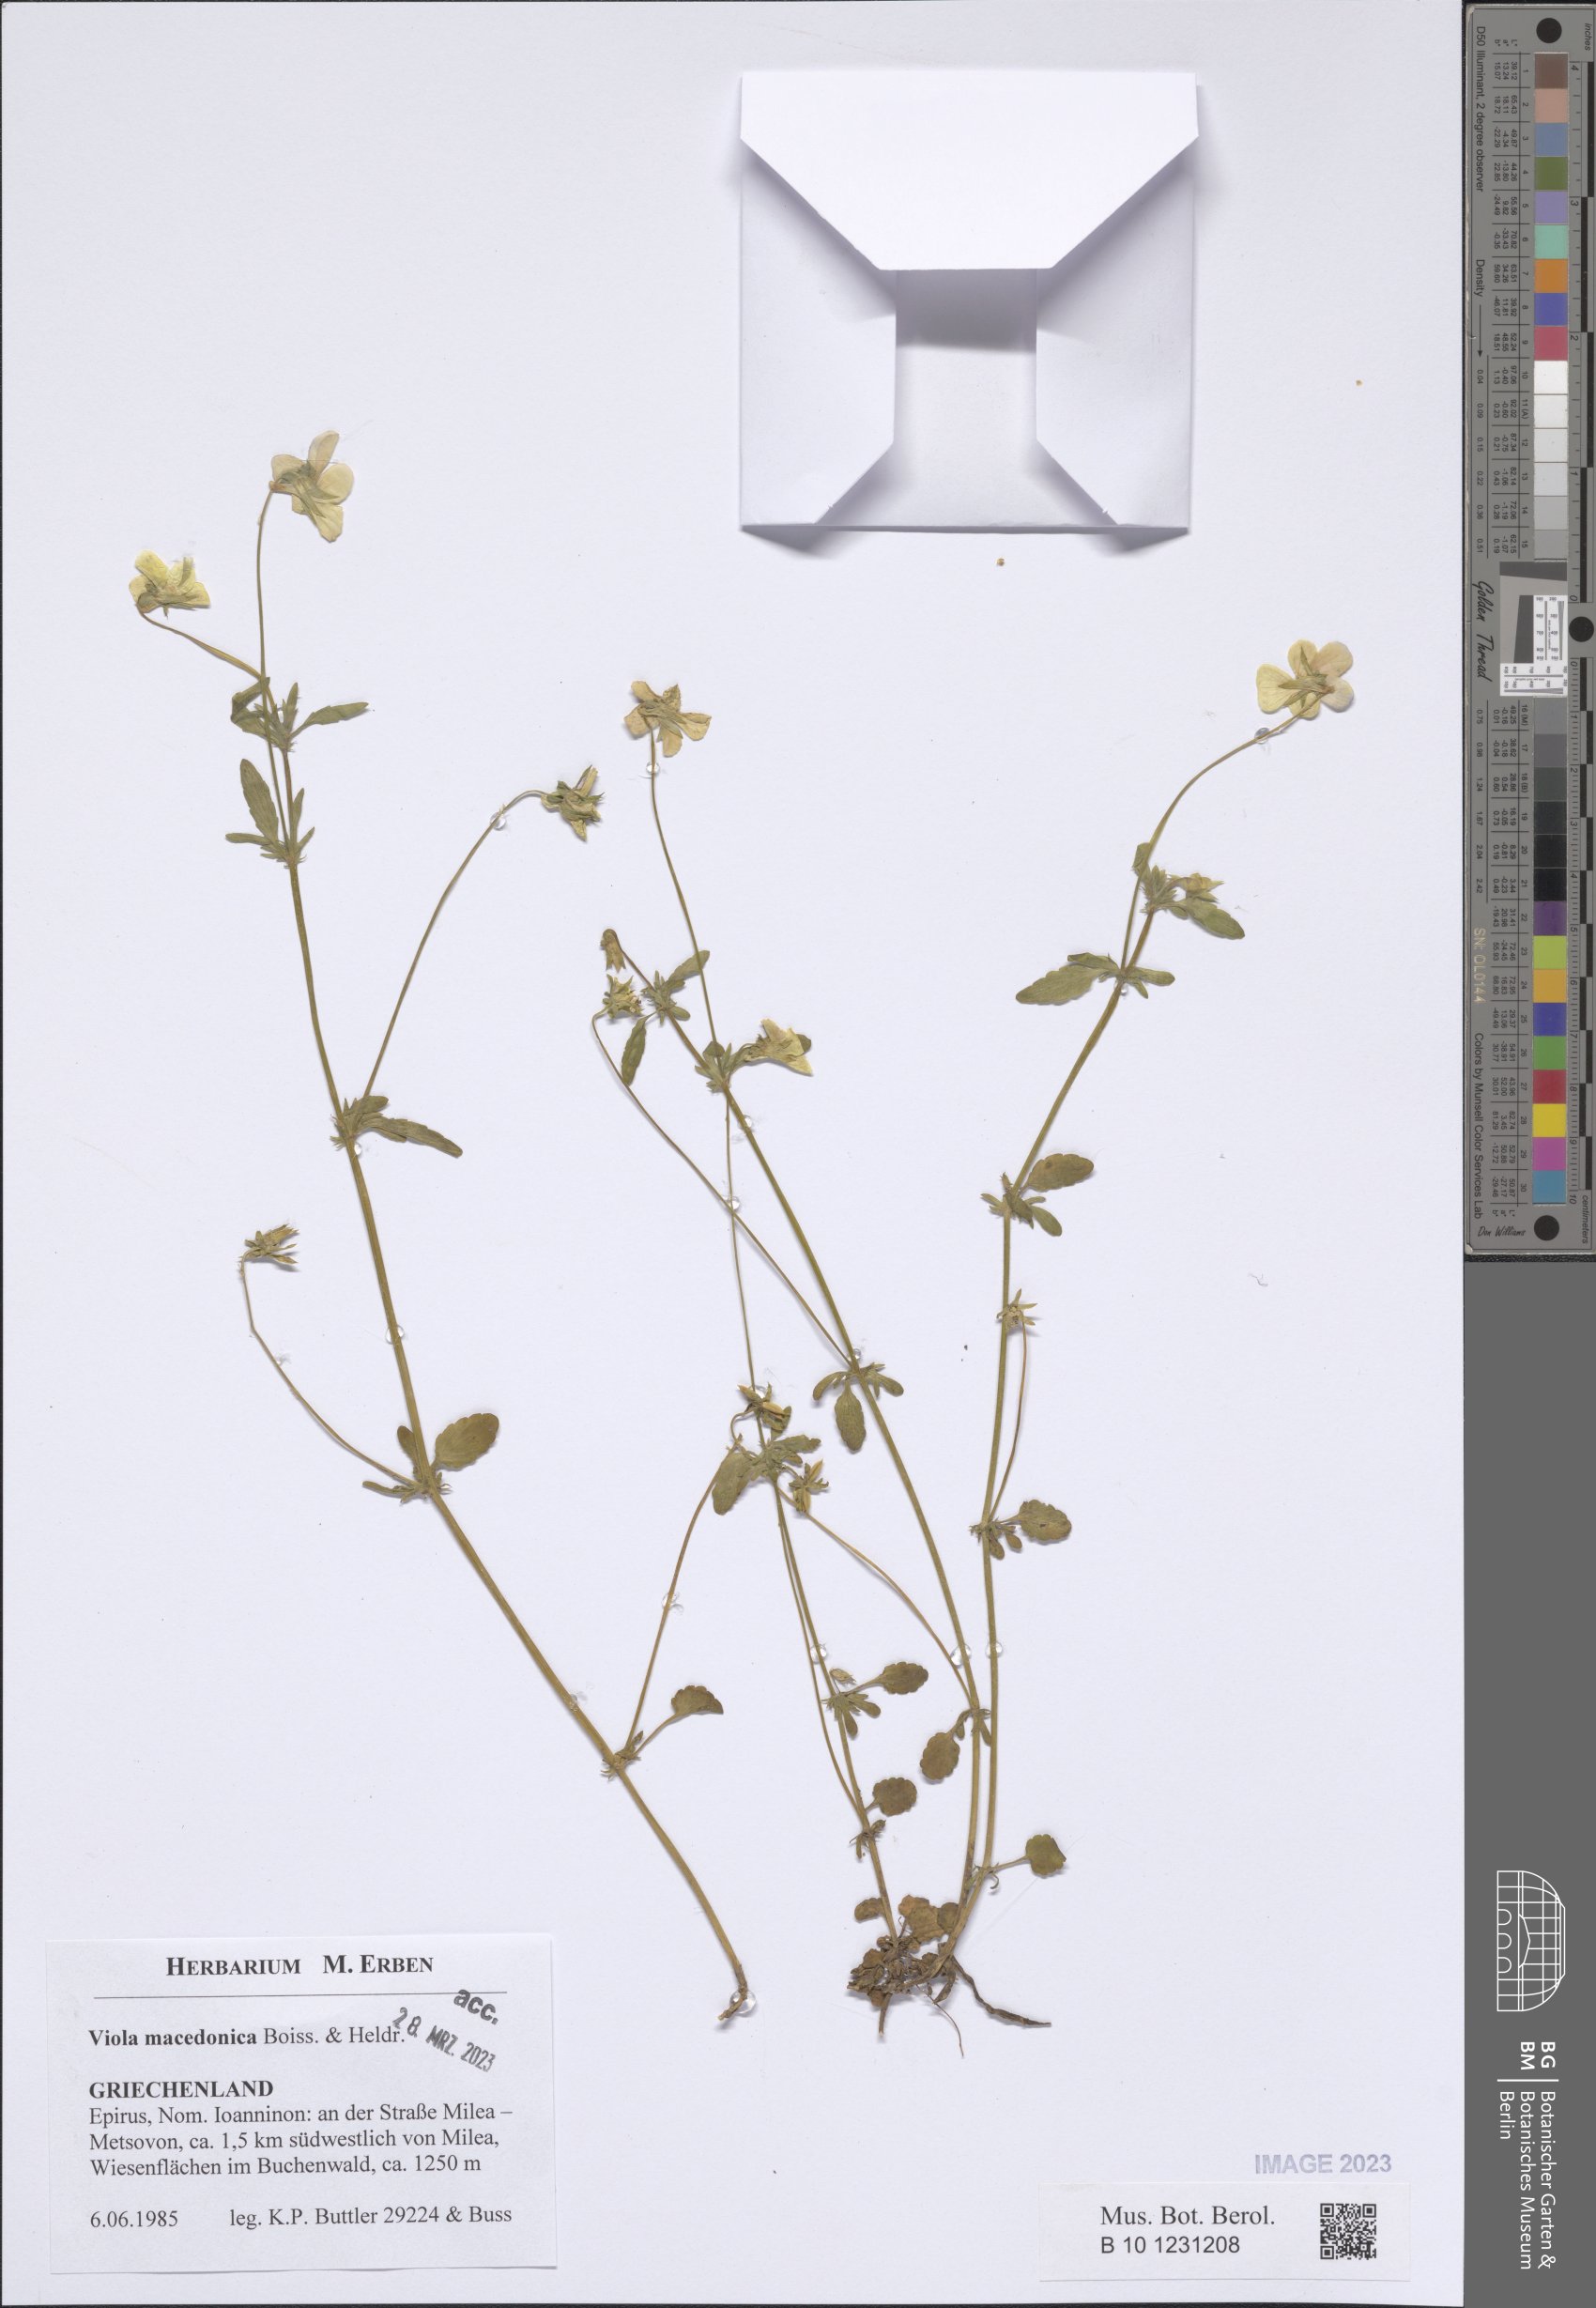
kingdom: Plantae
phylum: Tracheophyta
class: Magnoliopsida
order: Malpighiales
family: Violaceae
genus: Viola
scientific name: Viola tricolor
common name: Pansy
